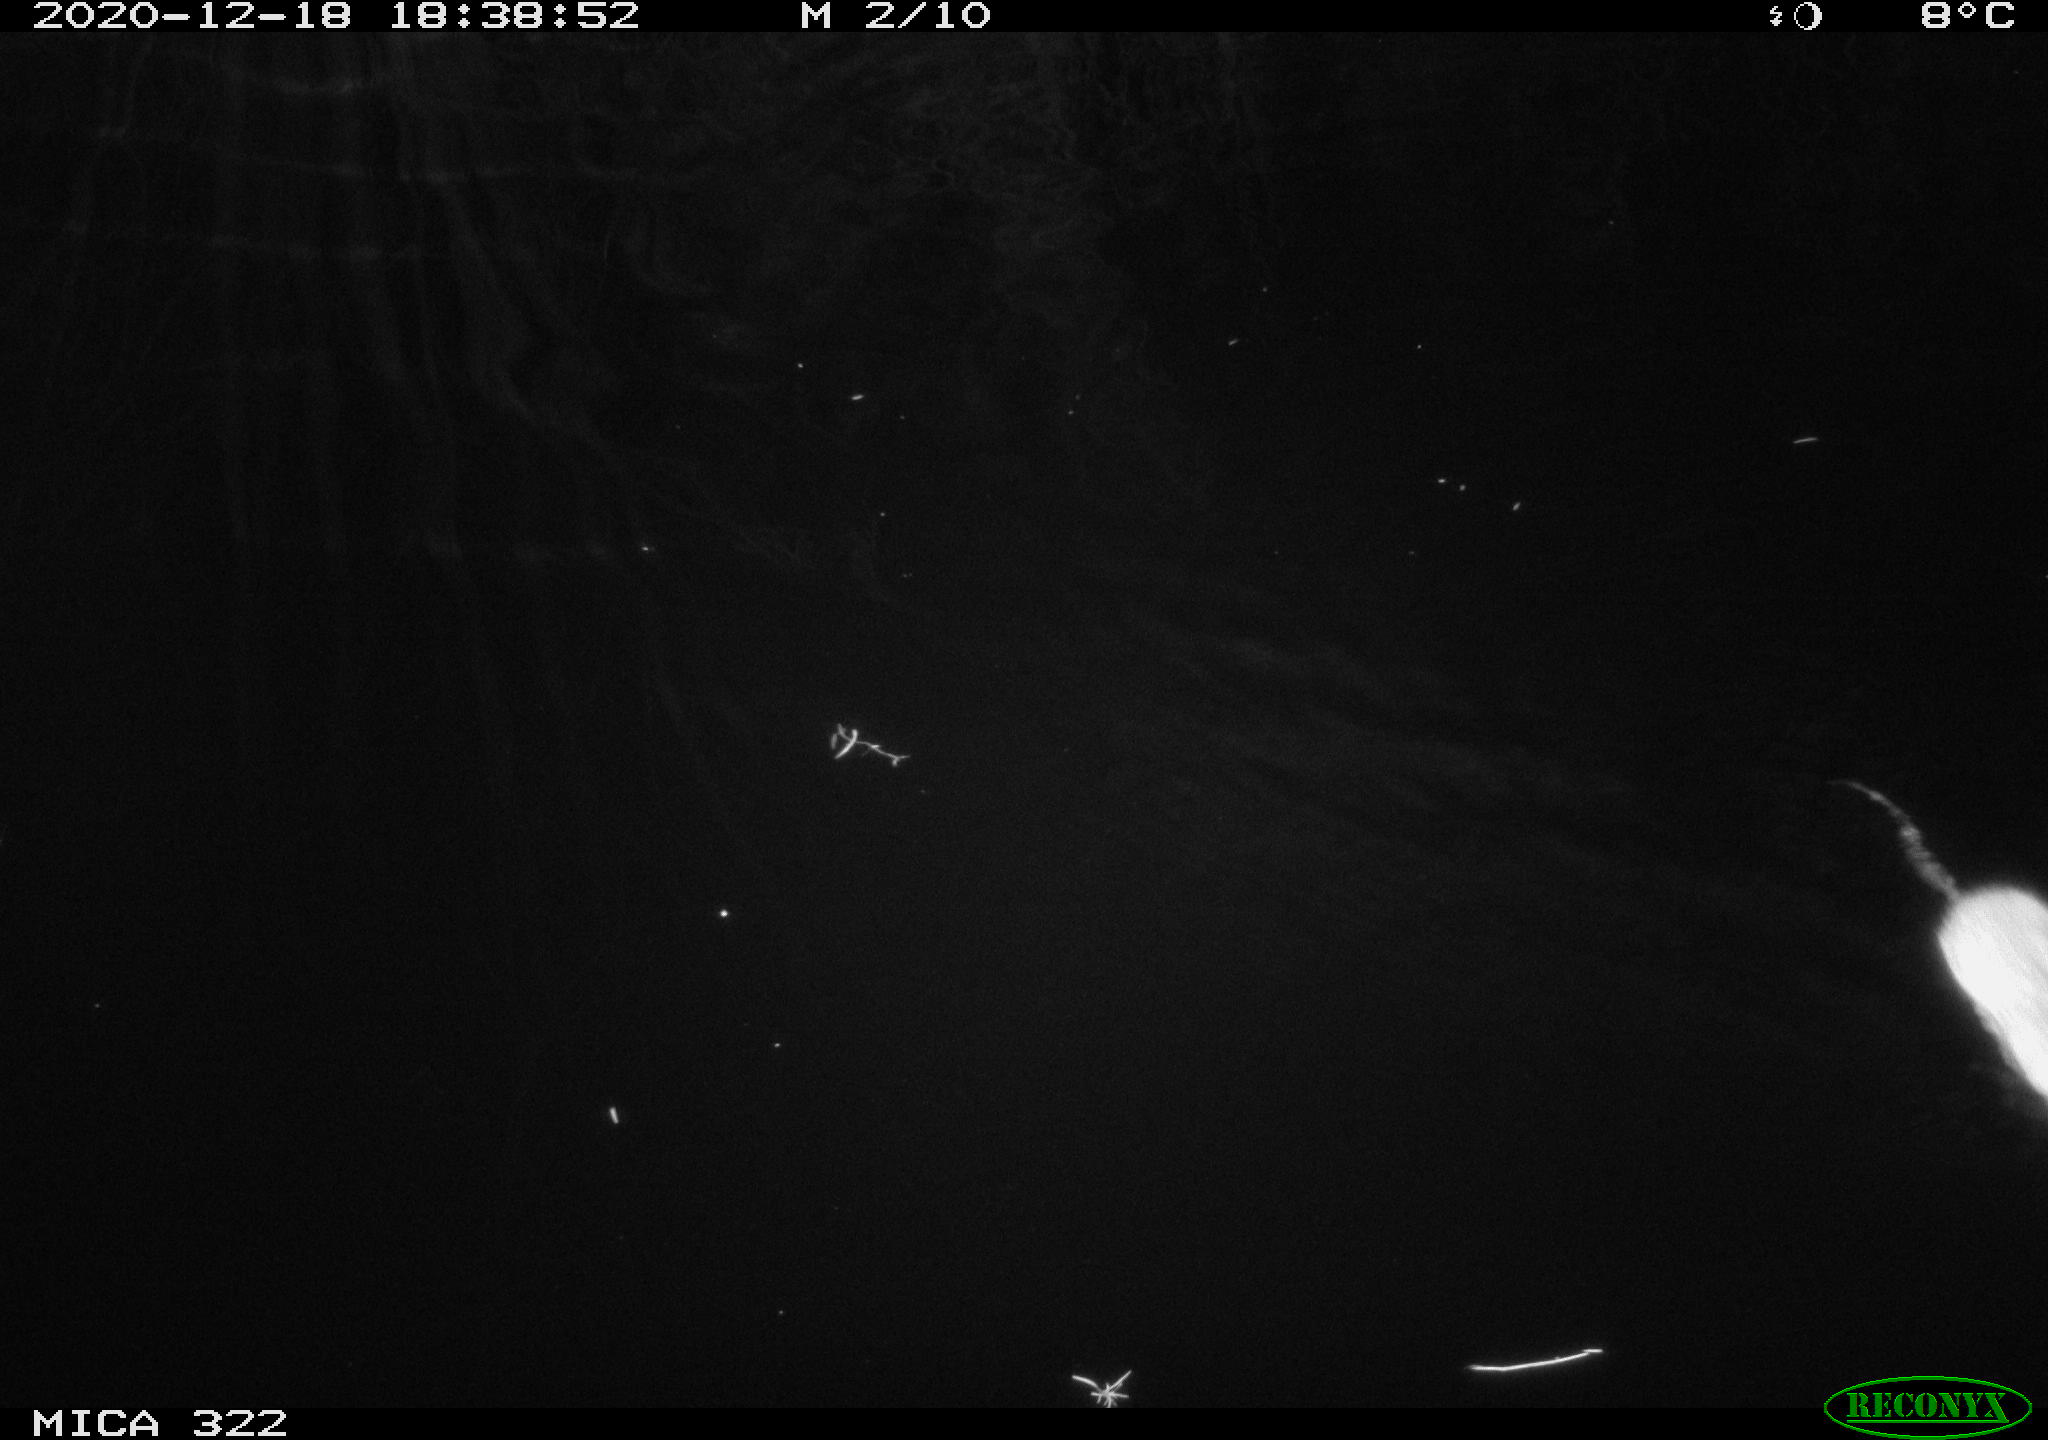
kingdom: Animalia
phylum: Chordata
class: Mammalia
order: Rodentia
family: Muridae
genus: Rattus
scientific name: Rattus norvegicus
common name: Brown rat
